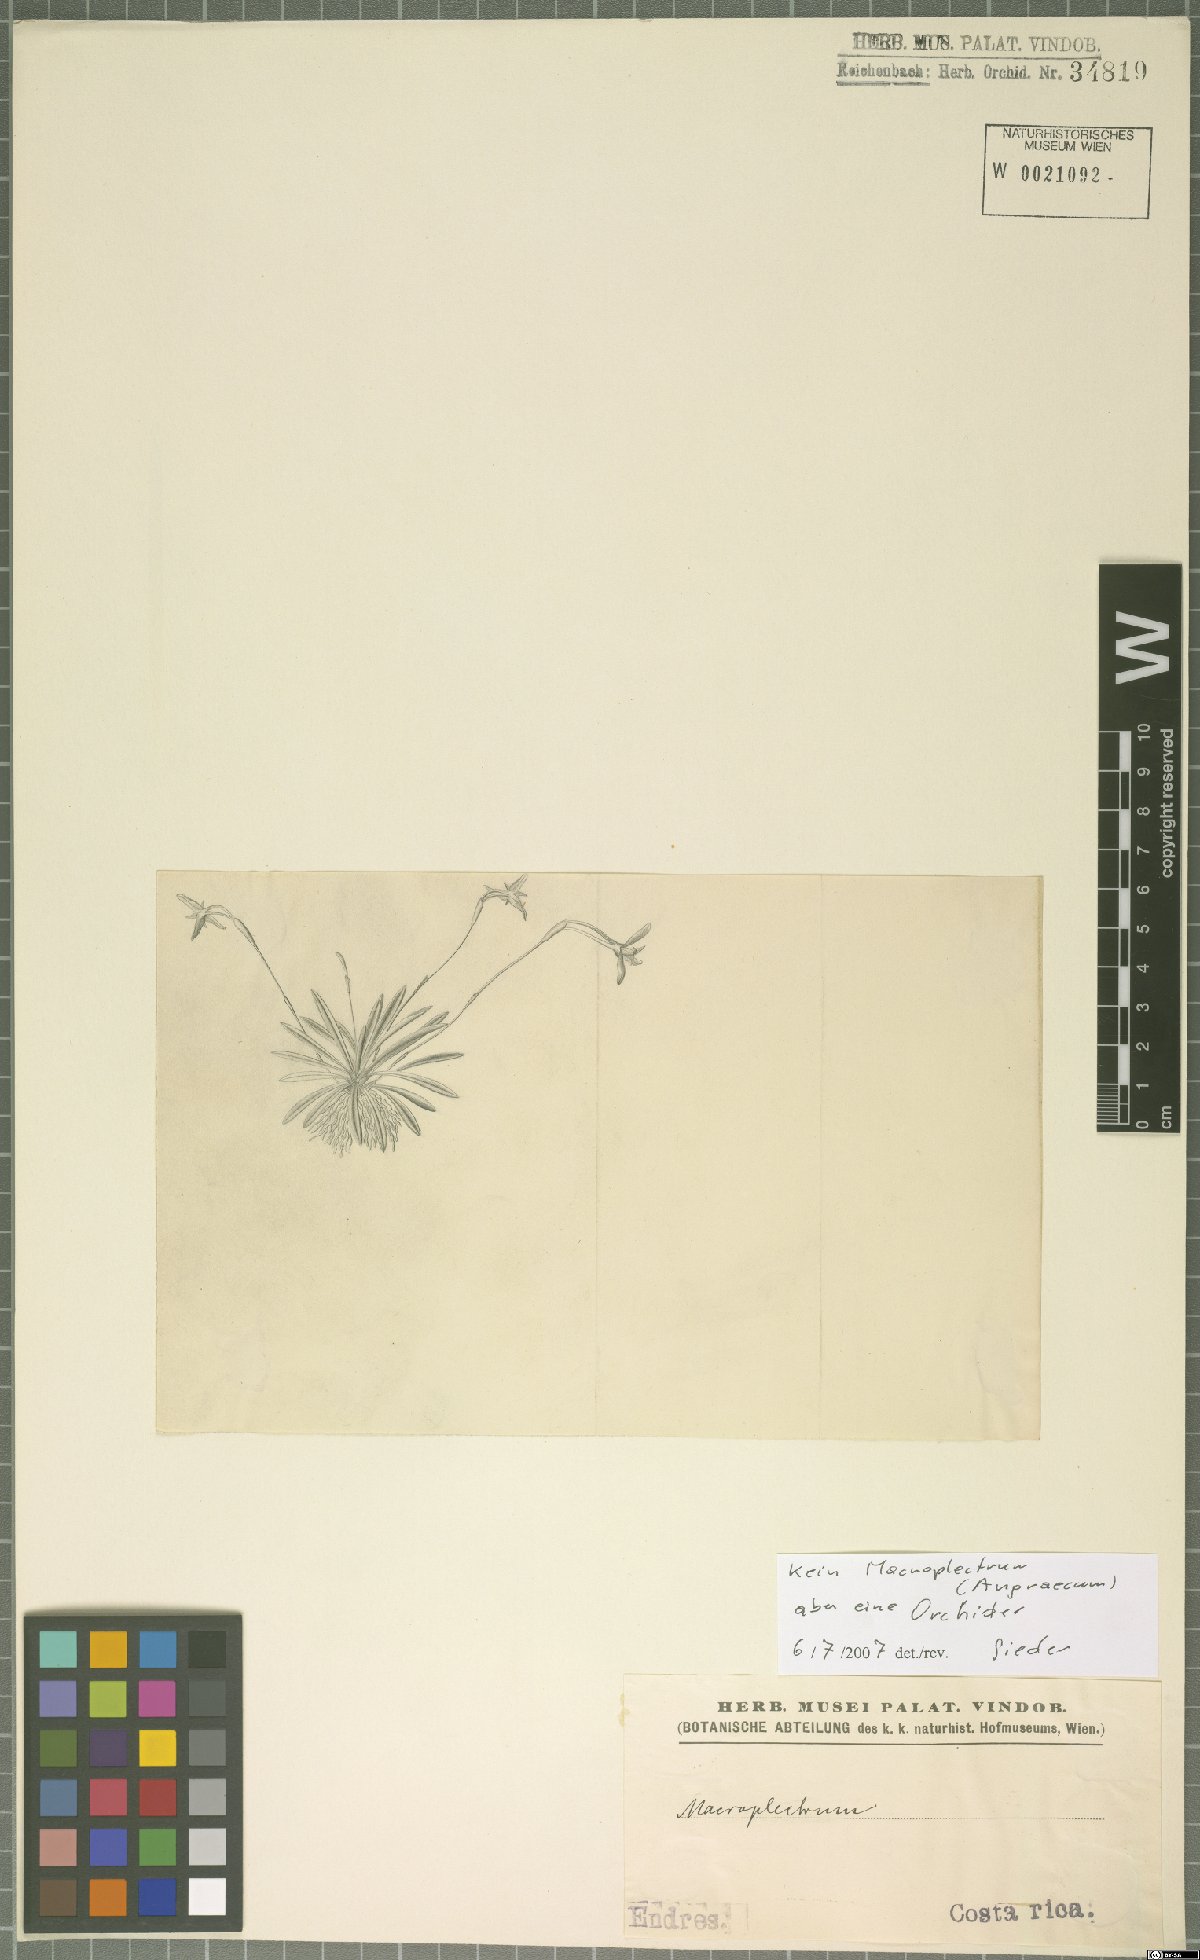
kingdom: Plantae
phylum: Tracheophyta
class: Liliopsida
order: Asparagales
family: Orchidaceae
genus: Maxillaria
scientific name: Maxillaria standleyi
